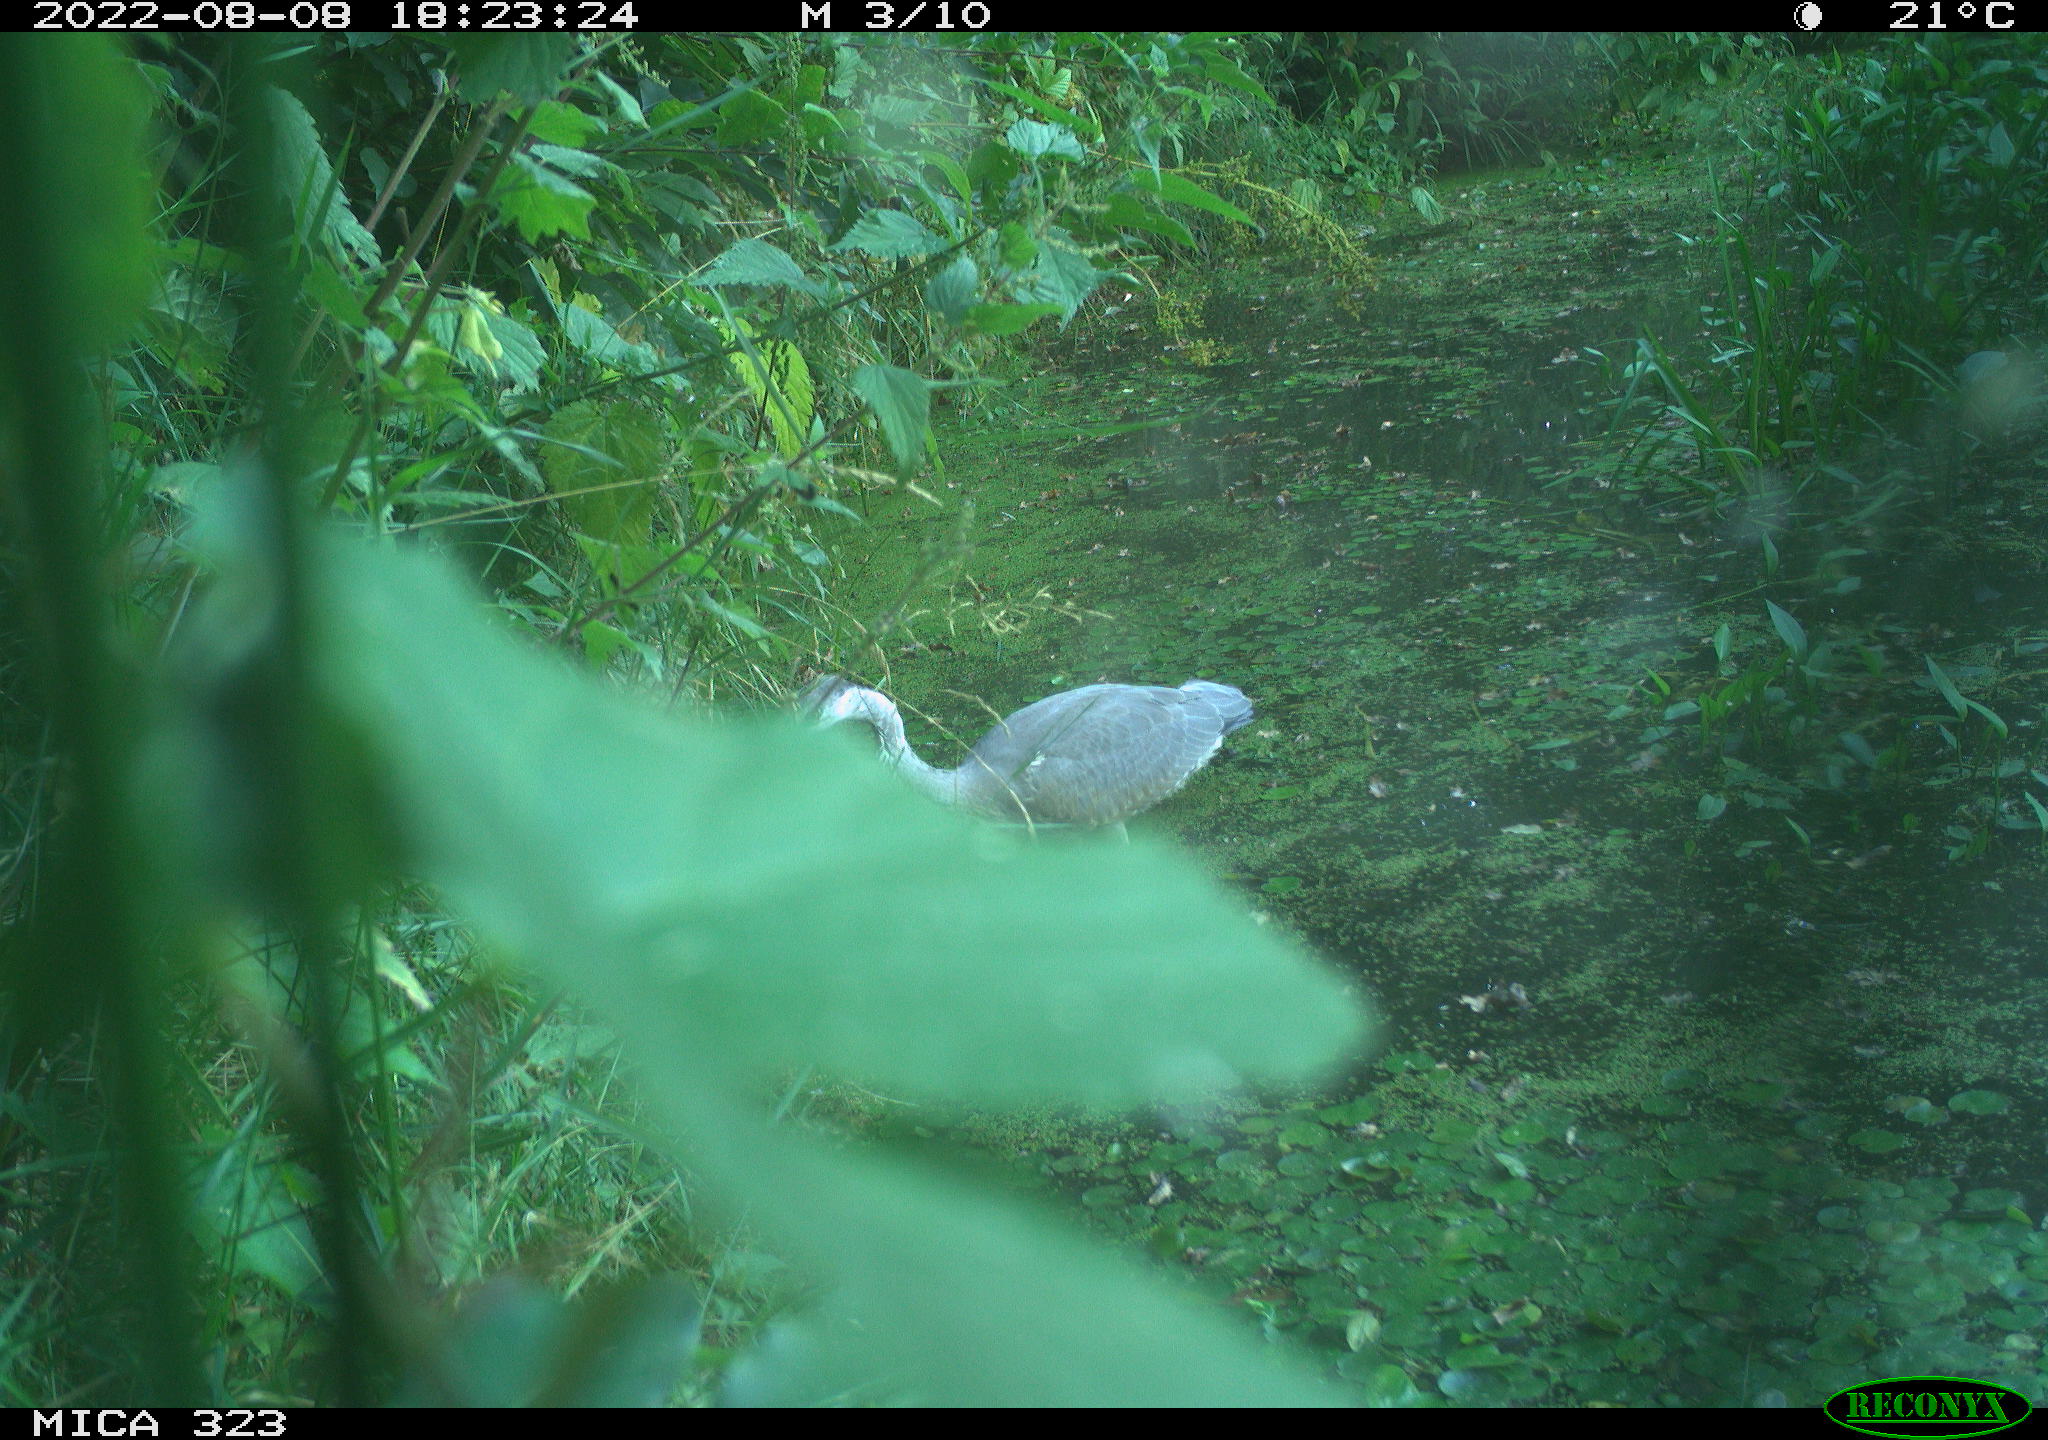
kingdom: Animalia
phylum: Chordata
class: Aves
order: Pelecaniformes
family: Ardeidae
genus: Ardea
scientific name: Ardea cinerea
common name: Grey heron
